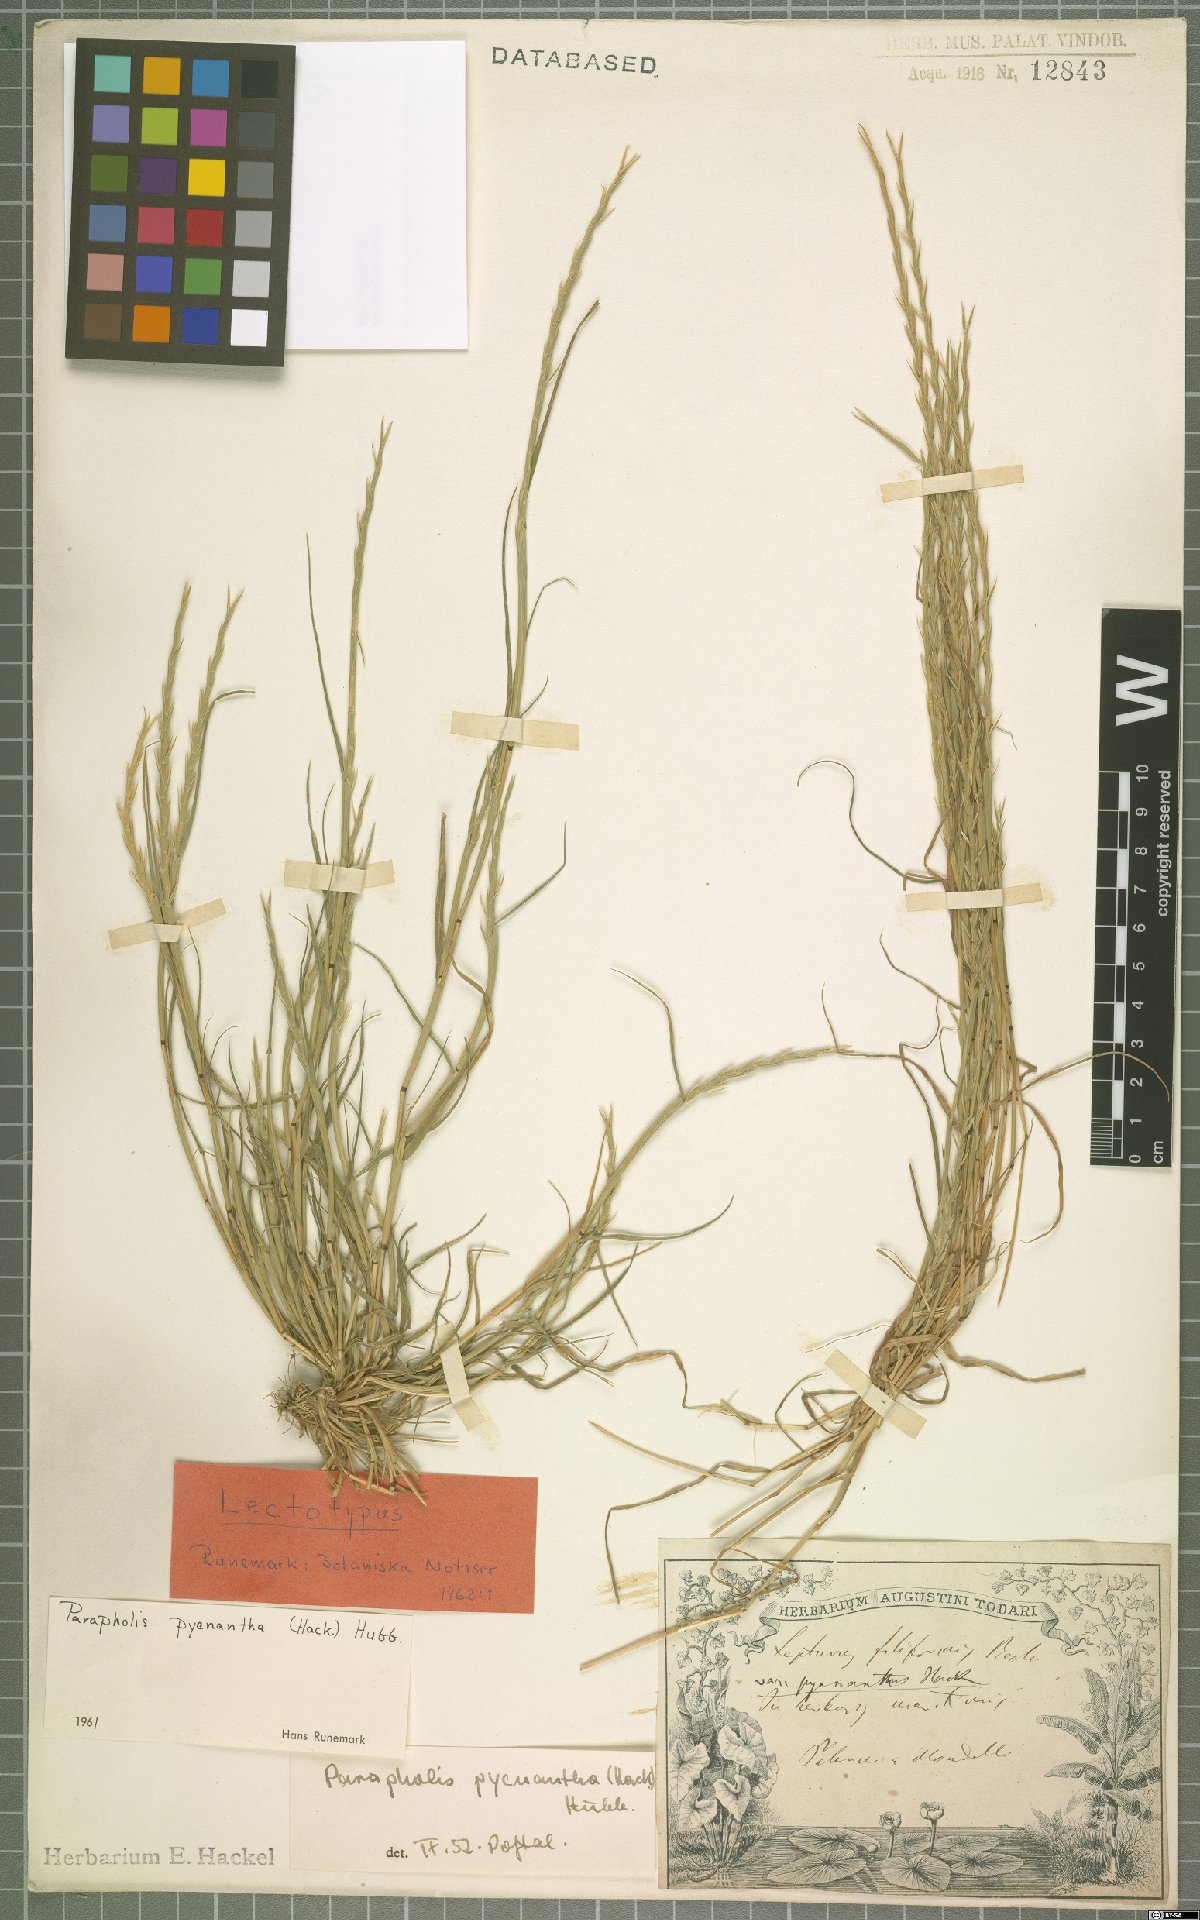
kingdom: Plantae
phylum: Tracheophyta
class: Liliopsida
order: Poales
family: Poaceae
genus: Parapholis
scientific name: Parapholis pycnantha
